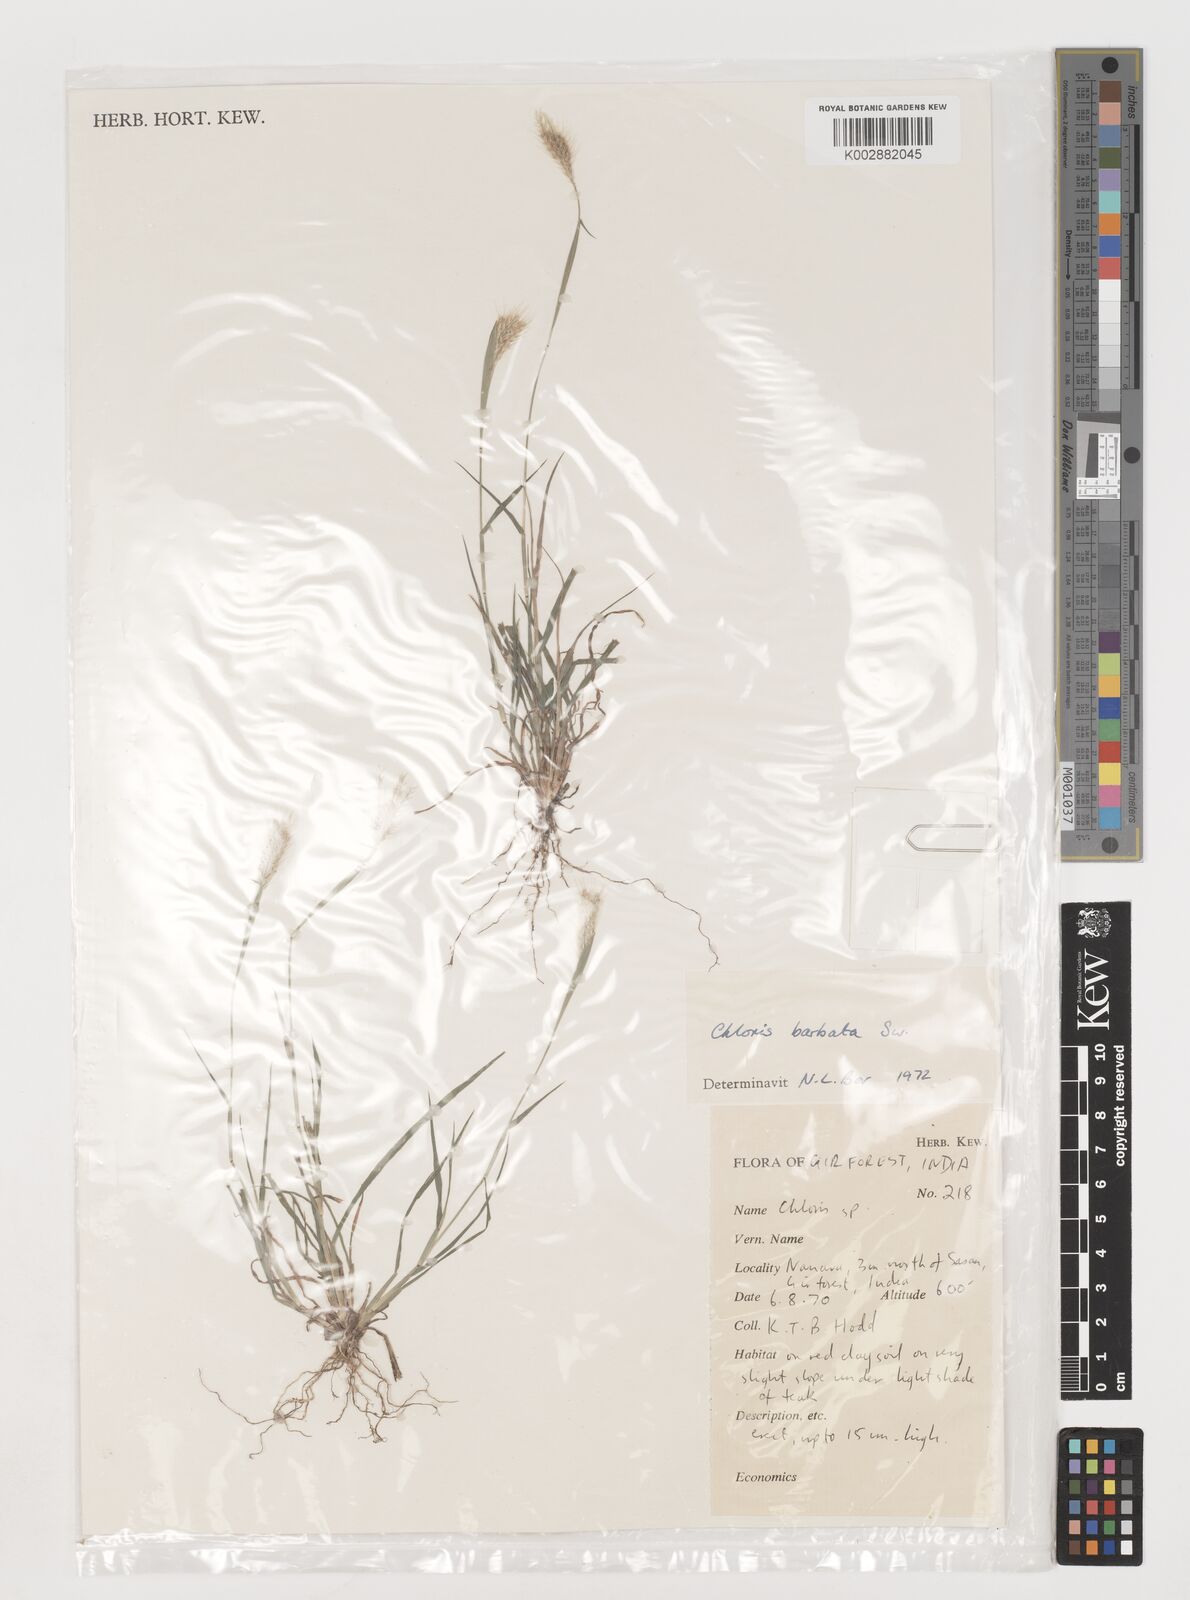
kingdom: Plantae
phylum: Tracheophyta
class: Liliopsida
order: Poales
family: Poaceae
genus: Chloris
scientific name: Chloris barbata
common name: Swollen fingergrass
